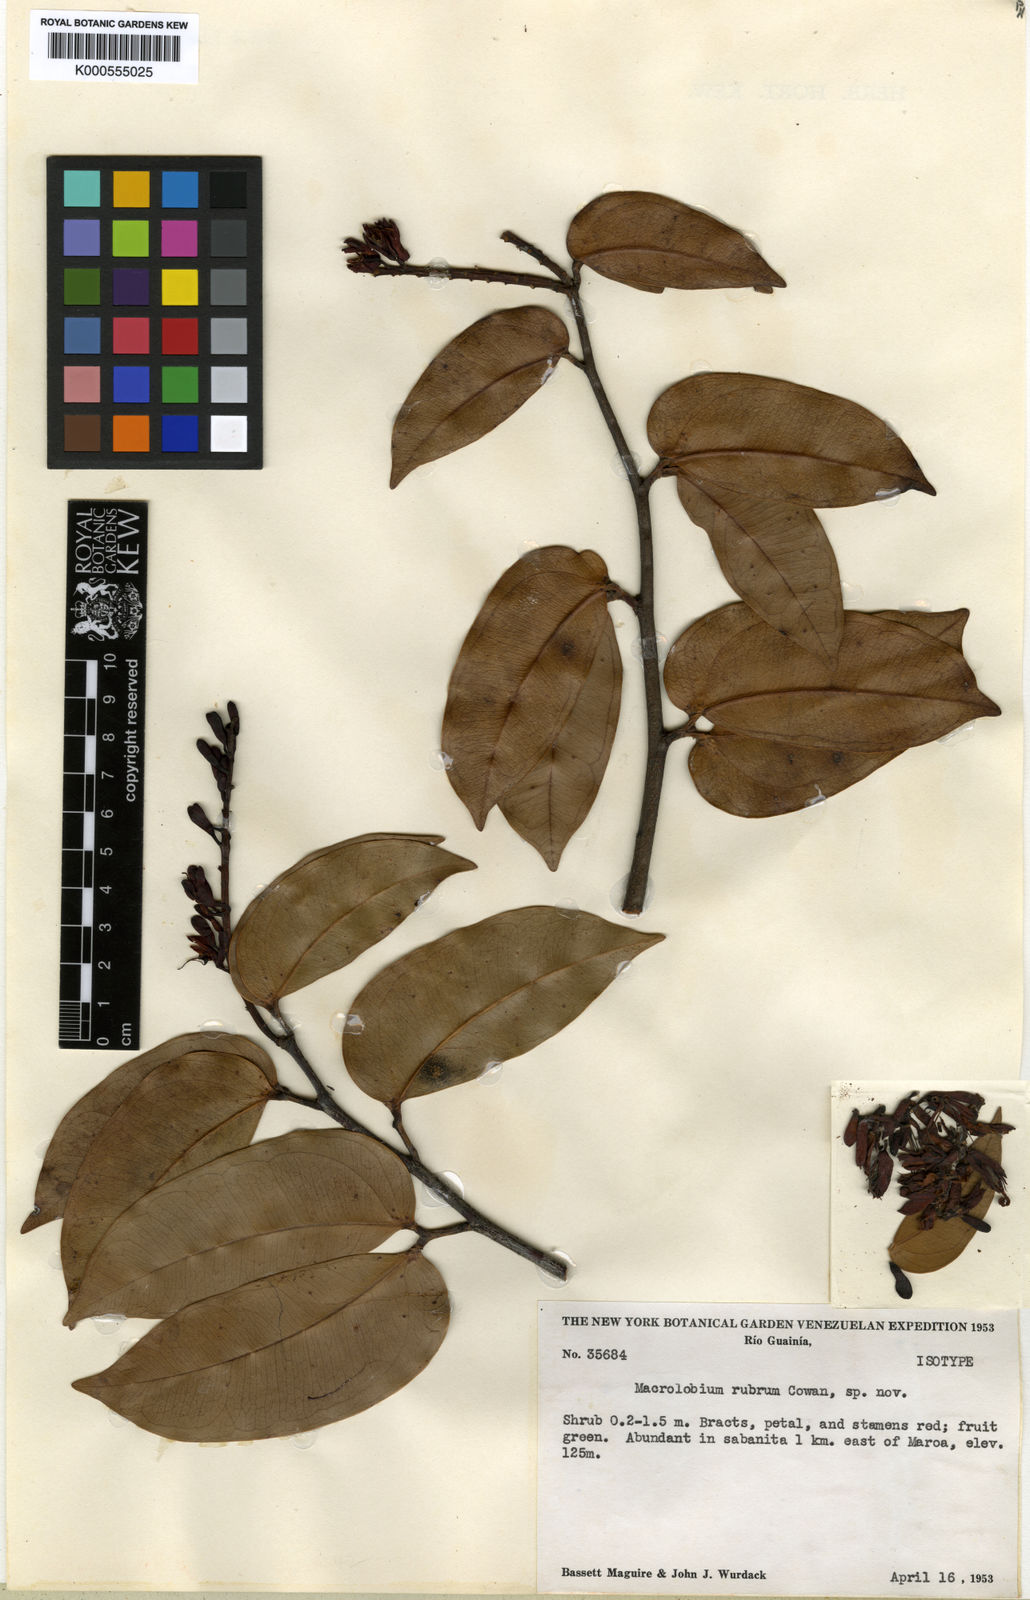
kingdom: Plantae
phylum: Tracheophyta
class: Magnoliopsida
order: Fabales
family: Fabaceae
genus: Macrolobium
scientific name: Macrolobium rubrum
